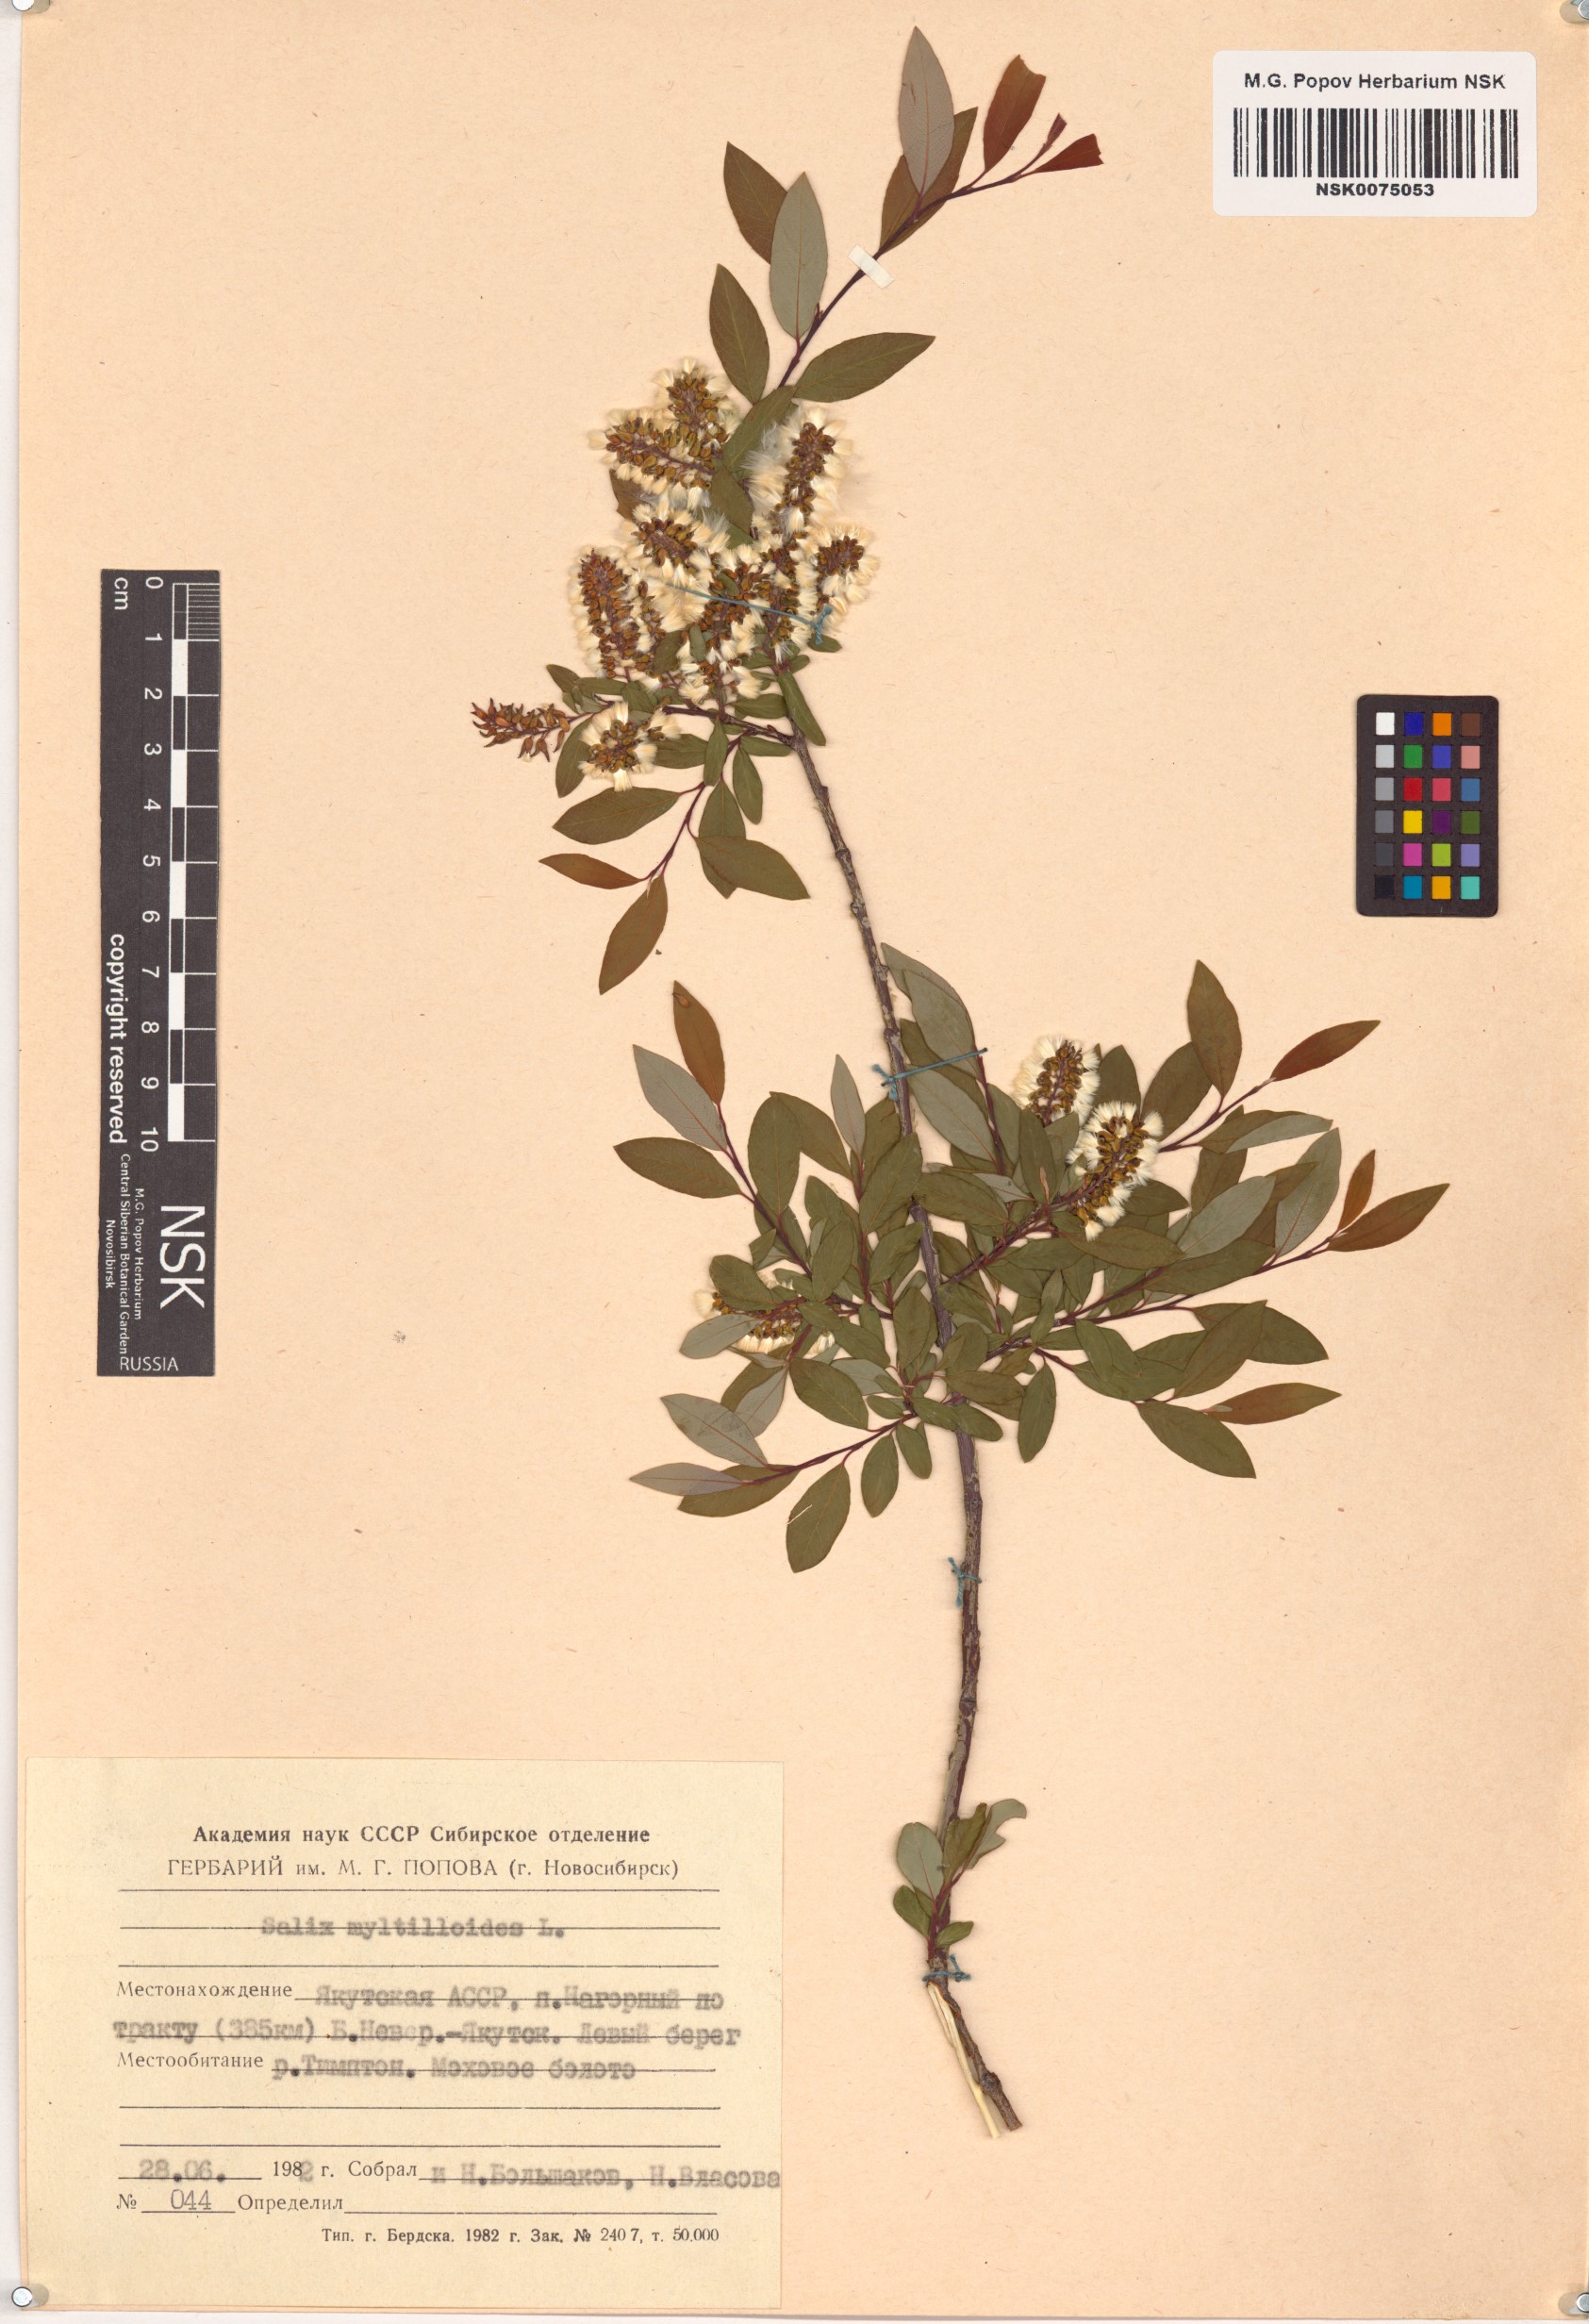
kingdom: Plantae
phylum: Tracheophyta
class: Magnoliopsida
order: Malpighiales
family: Salicaceae
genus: Salix
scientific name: Salix myrtilloides
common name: Myrtle-leaved willow
